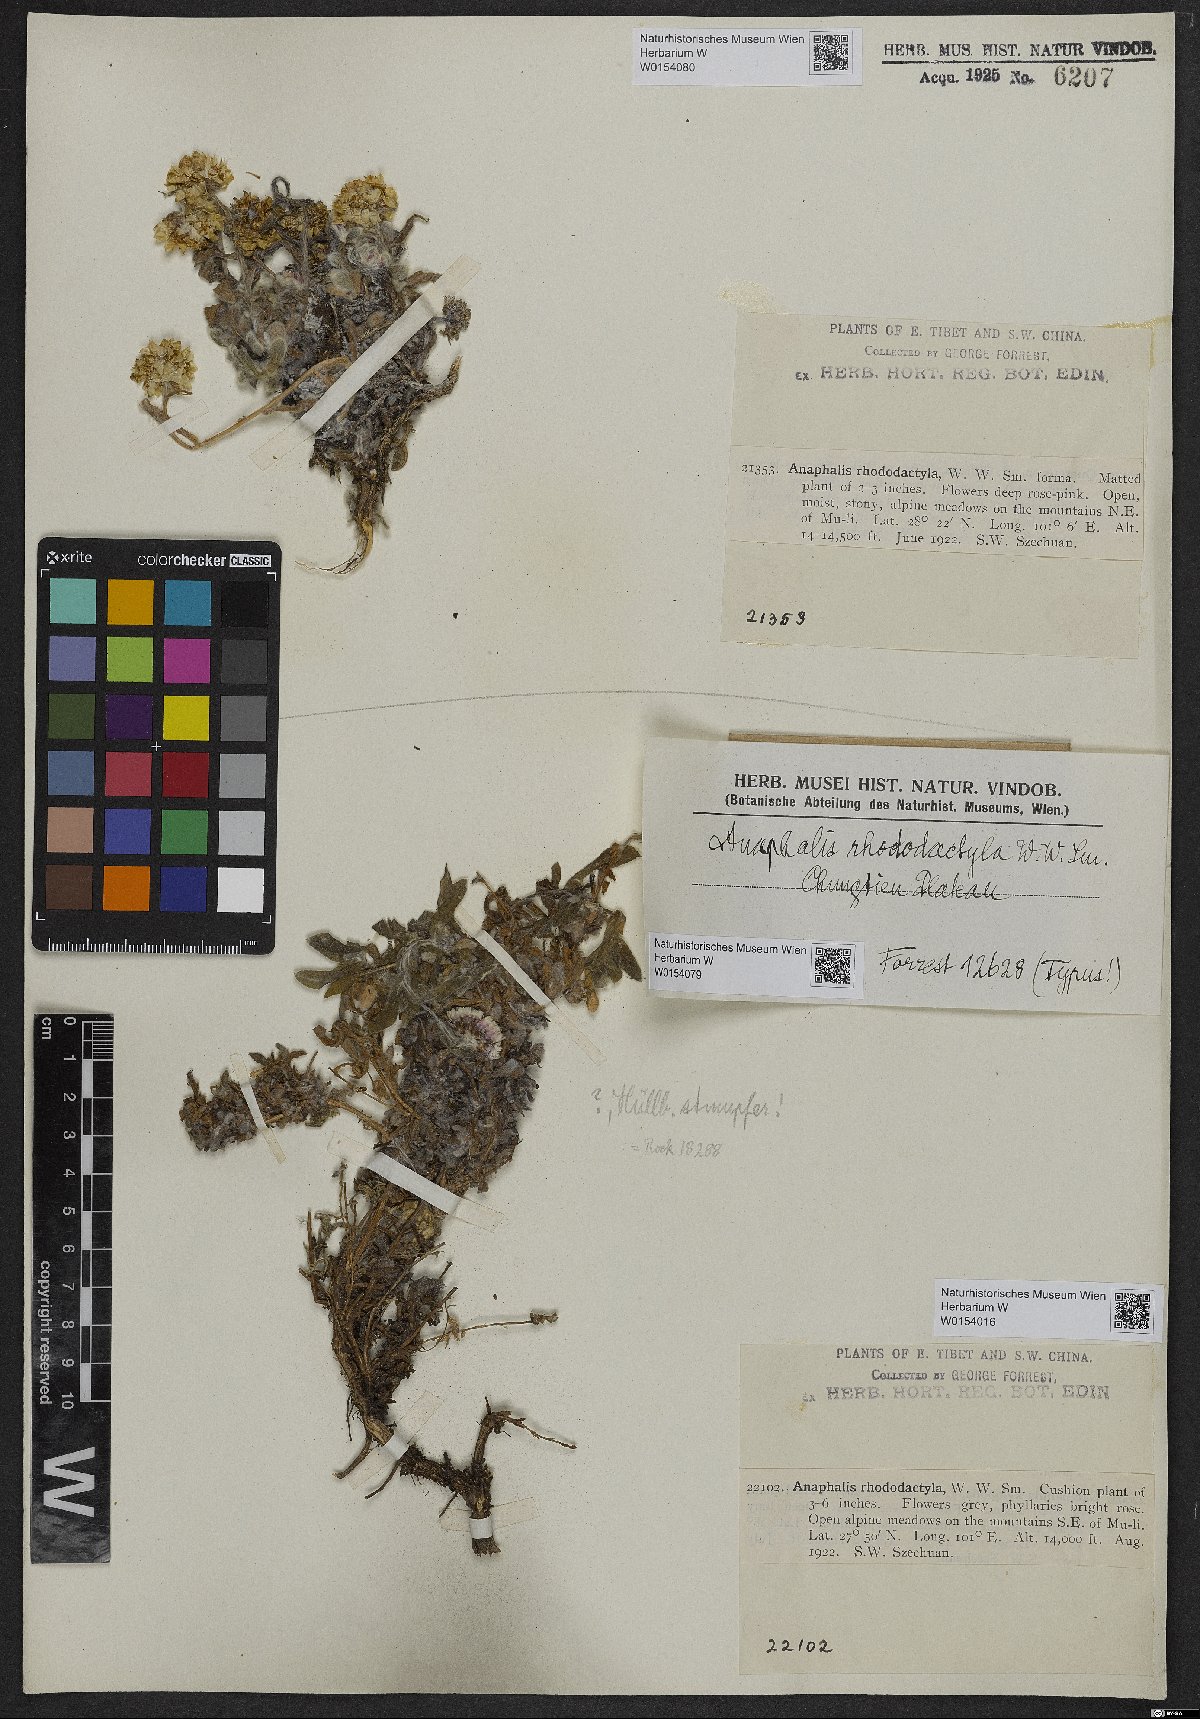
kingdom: Plantae
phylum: Tracheophyta
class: Magnoliopsida
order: Asterales
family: Asteraceae
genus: Anaphalis
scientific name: Anaphalis rhododactyla
